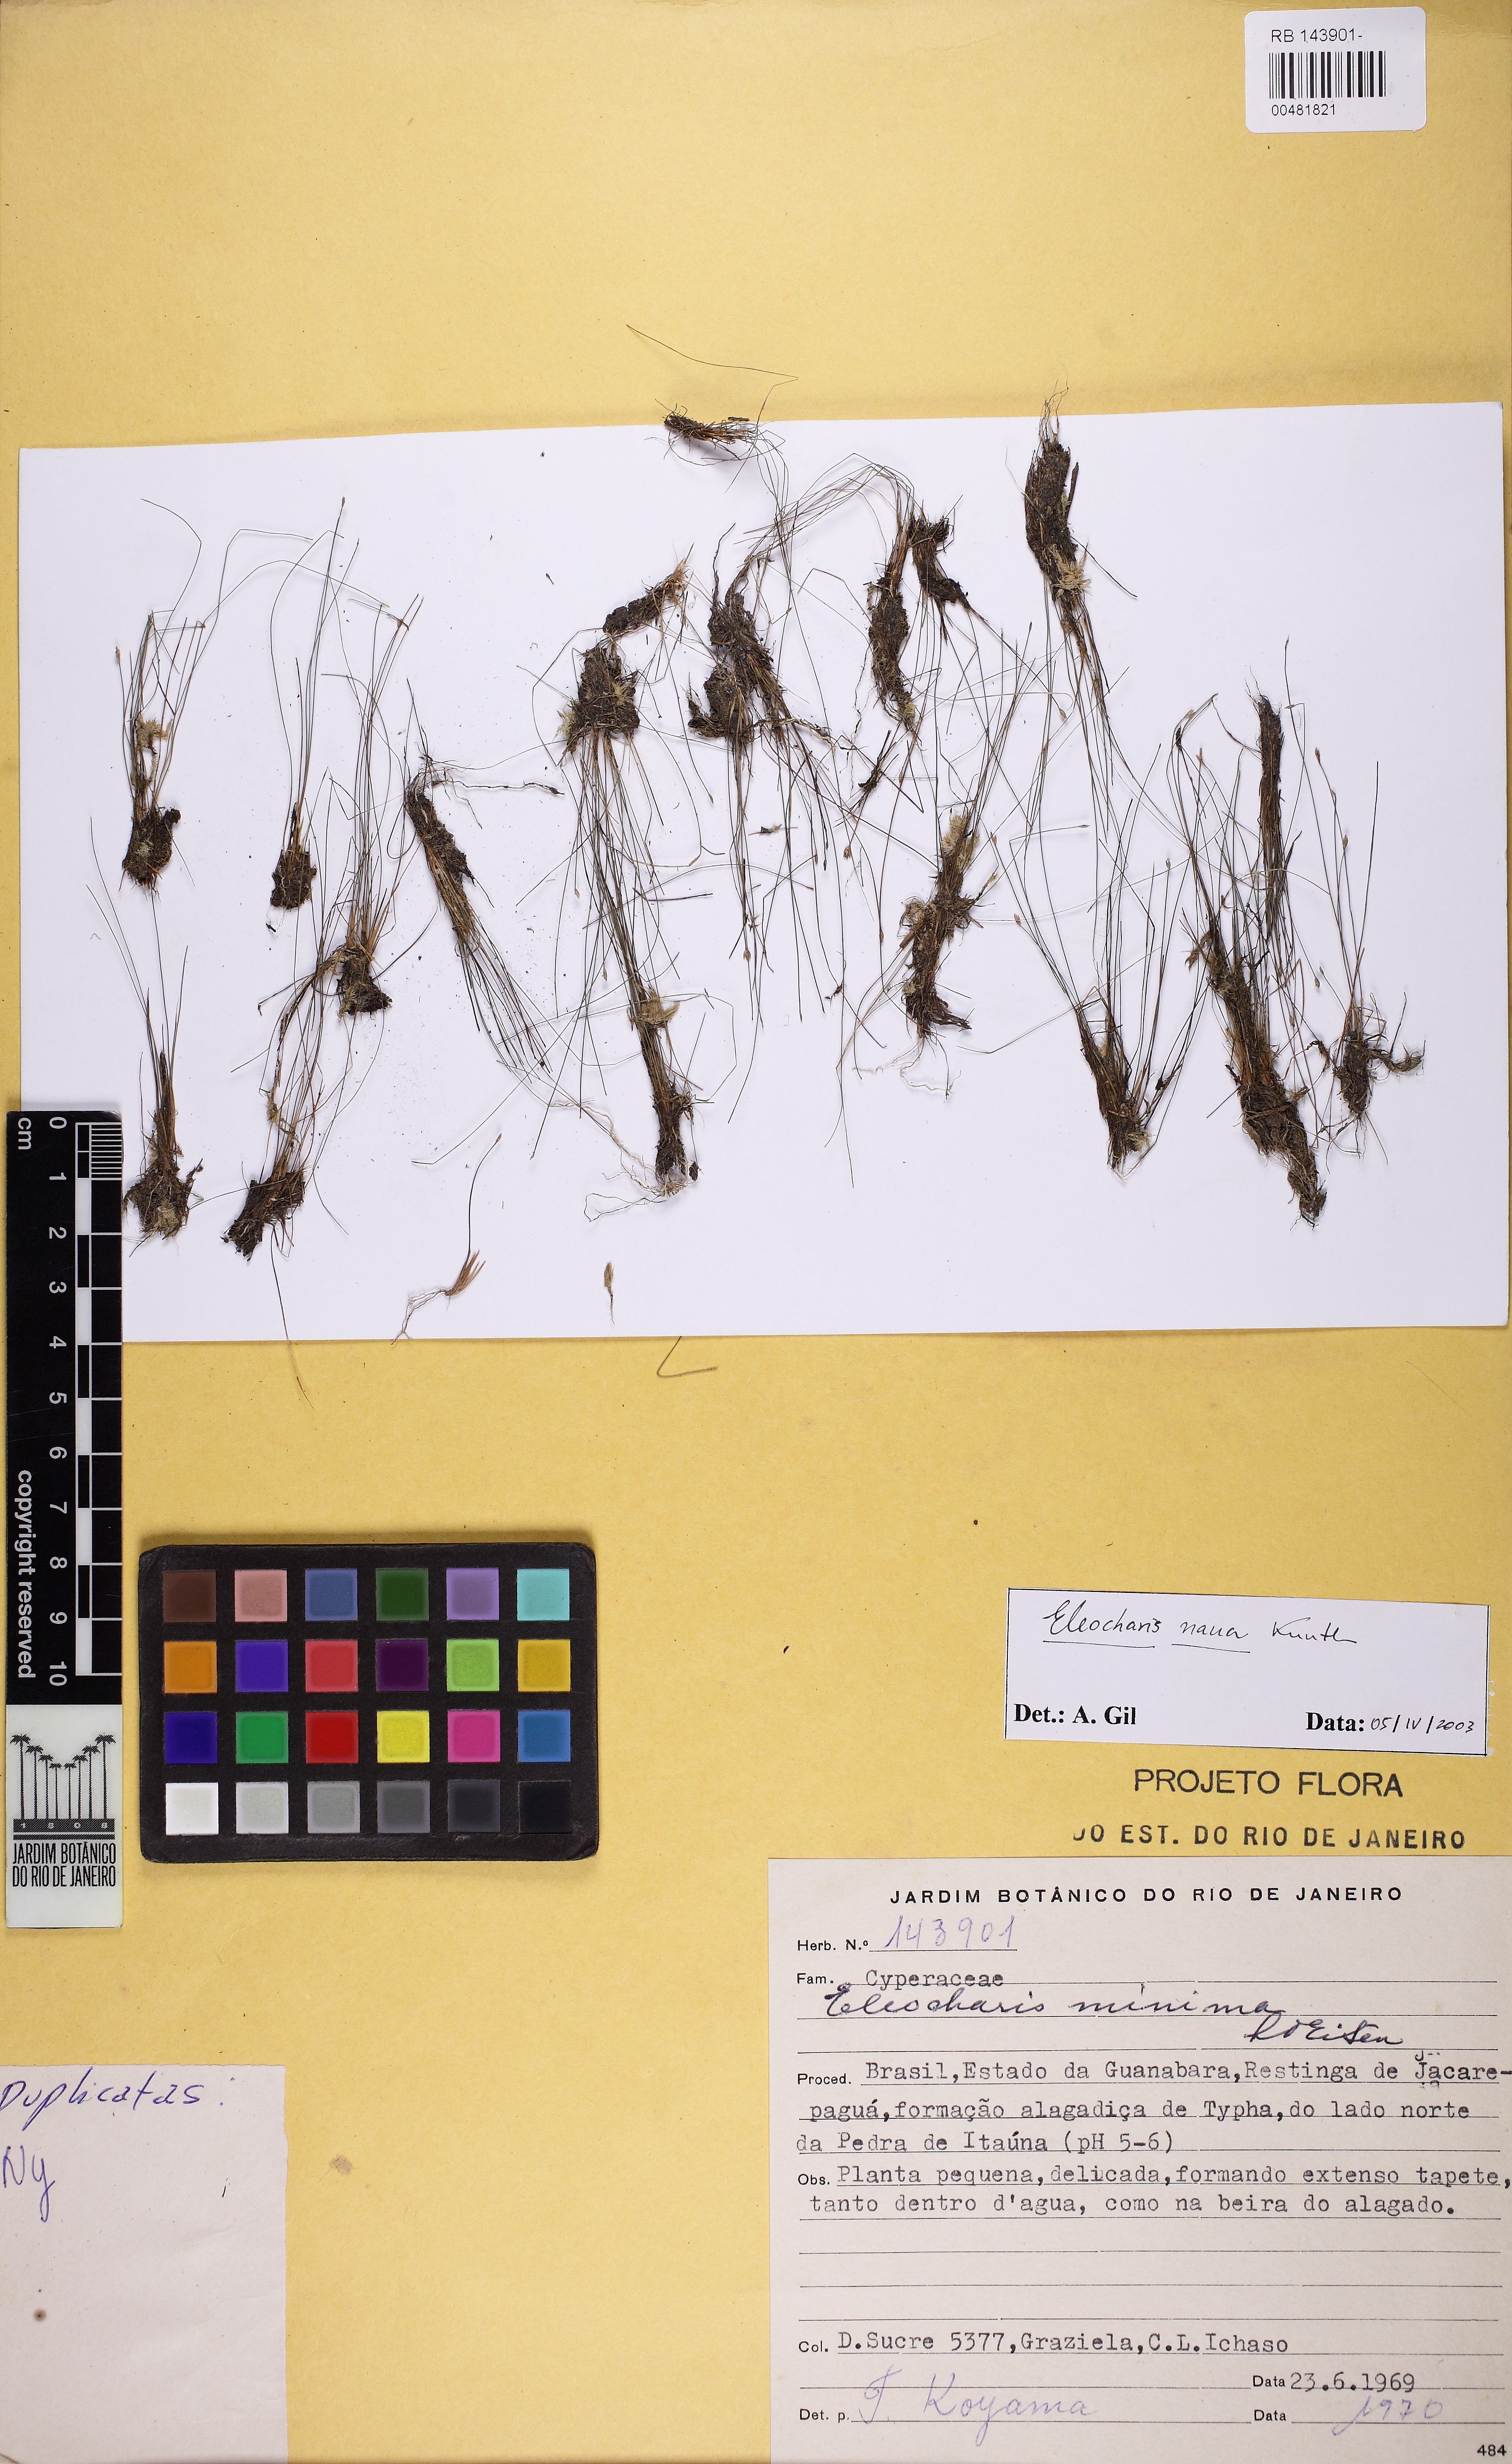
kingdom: Plantae
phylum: Tracheophyta
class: Liliopsida
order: Poales
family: Cyperaceae
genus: Eleocharis
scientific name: Eleocharis nana
